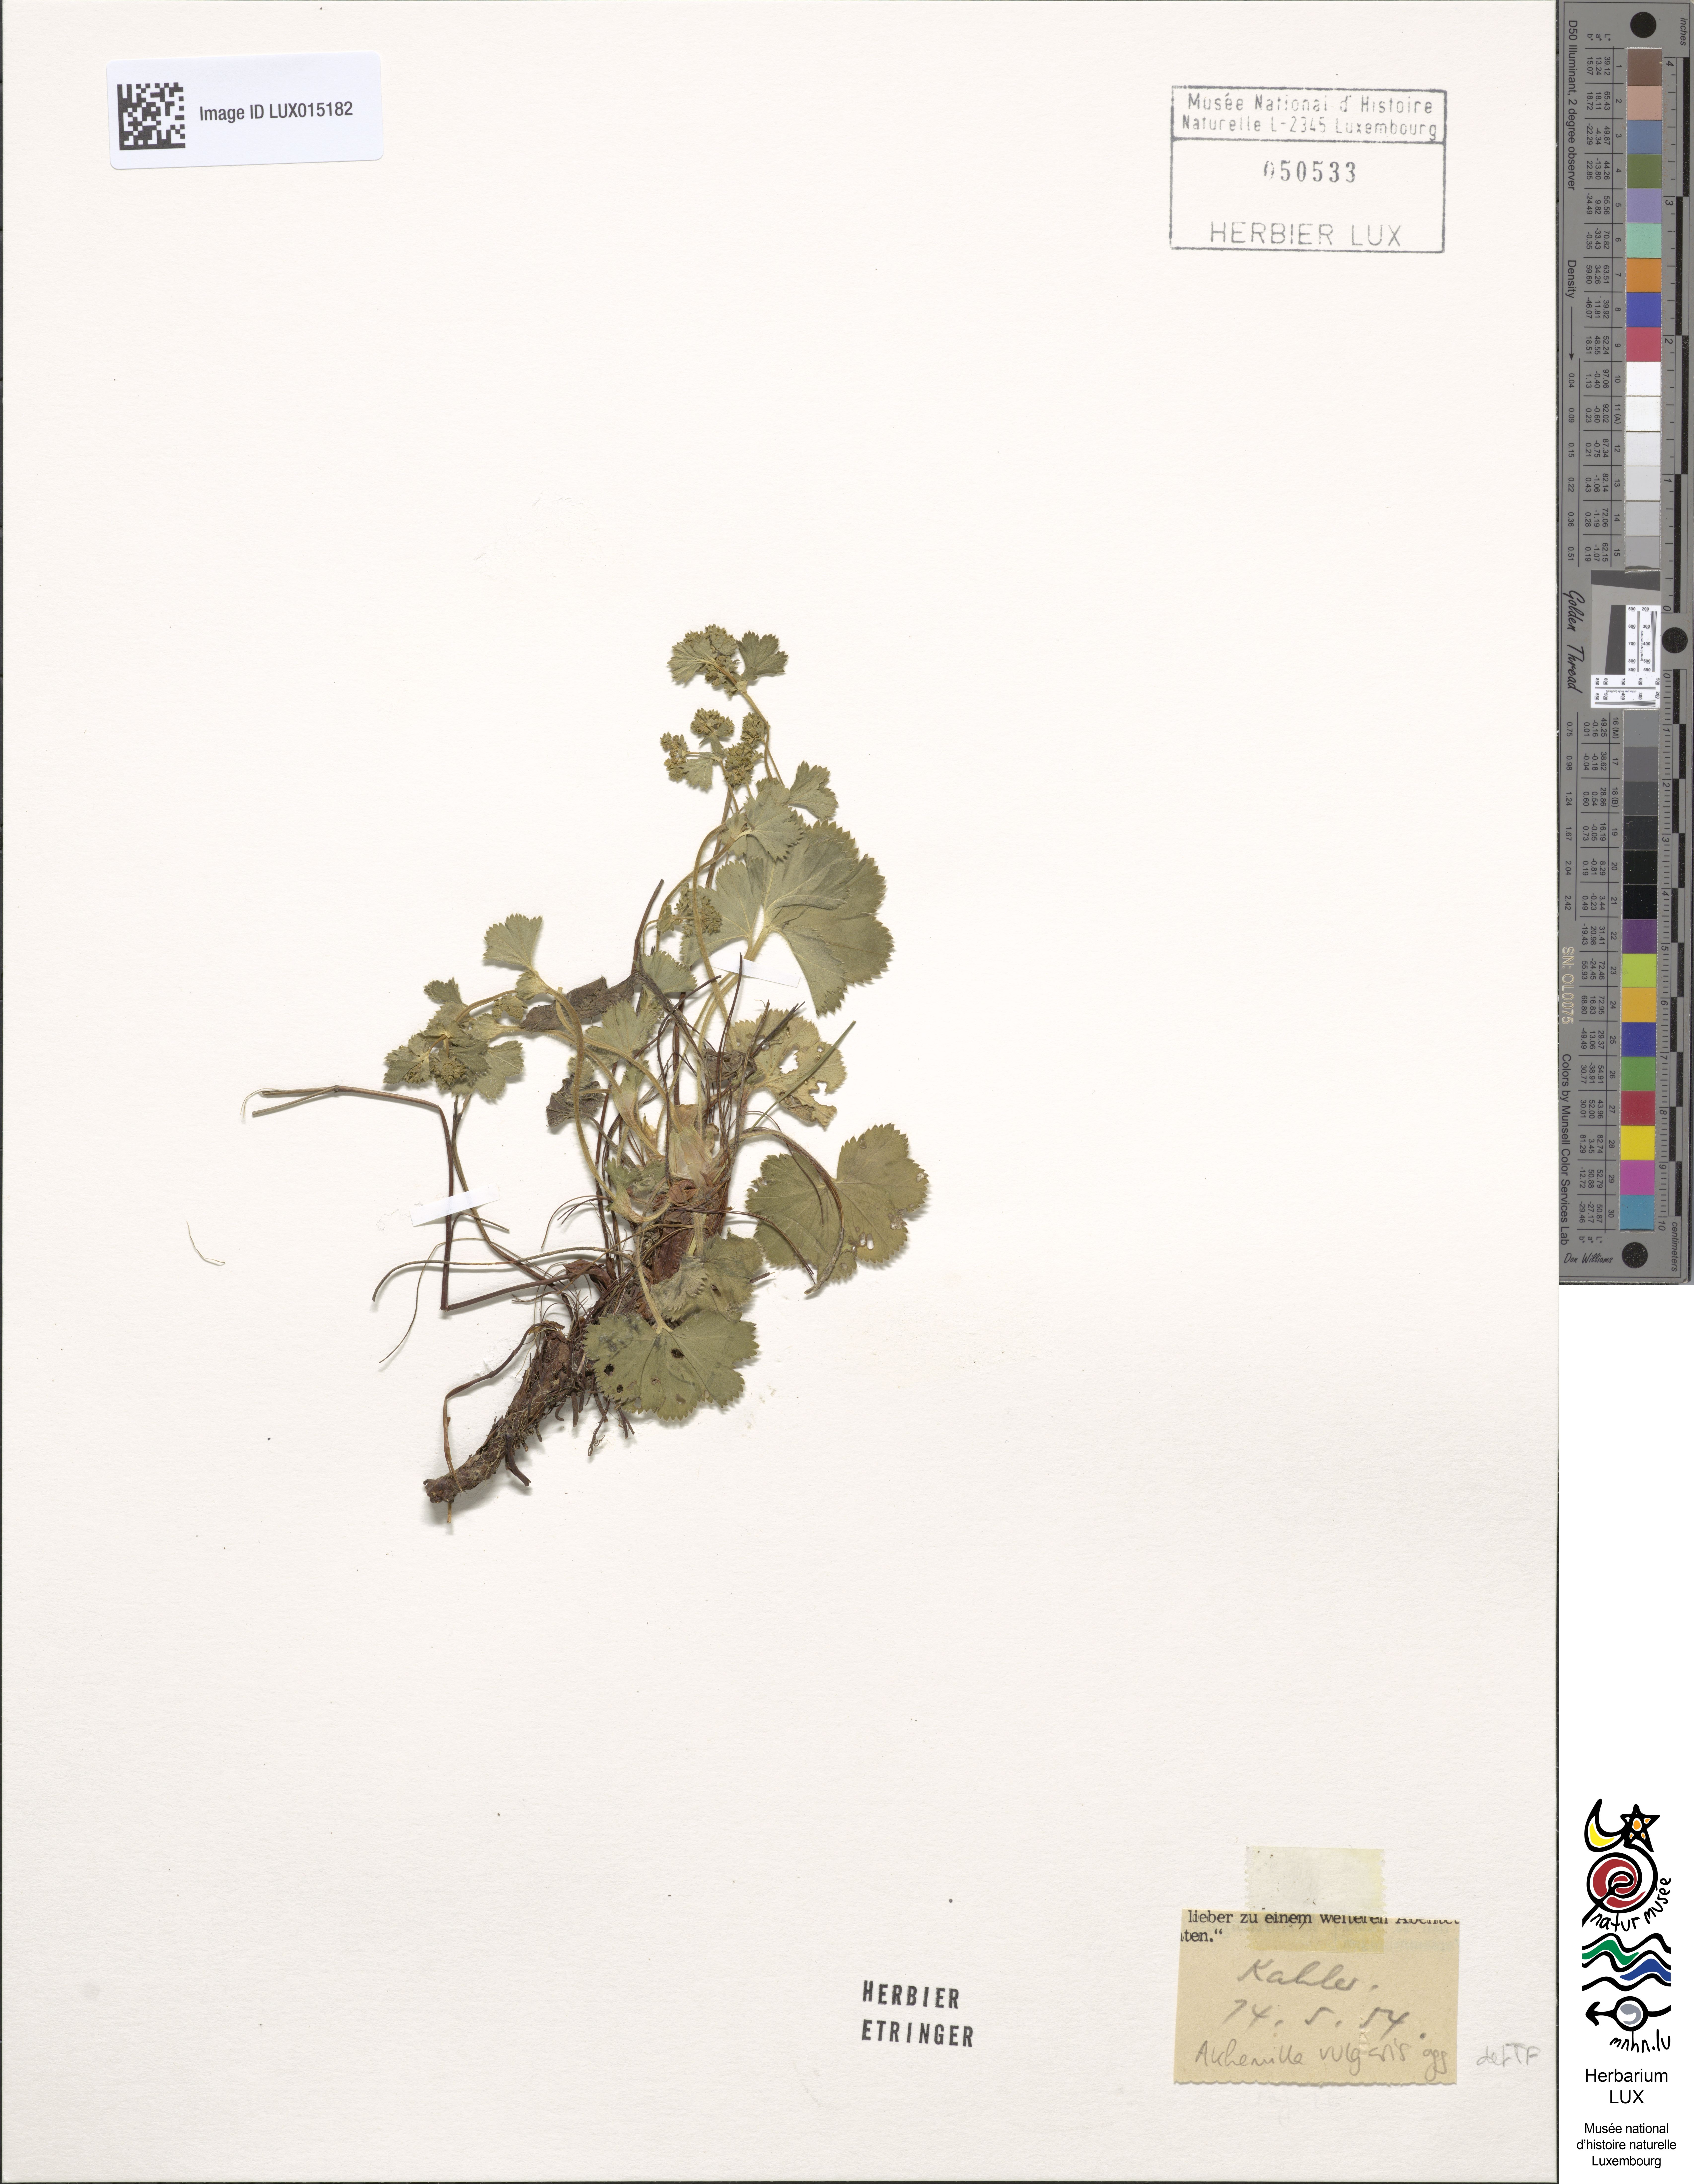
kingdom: Plantae
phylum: Tracheophyta
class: Magnoliopsida
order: Rosales
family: Rosaceae
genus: Alchemilla
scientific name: Alchemilla vulgaris
